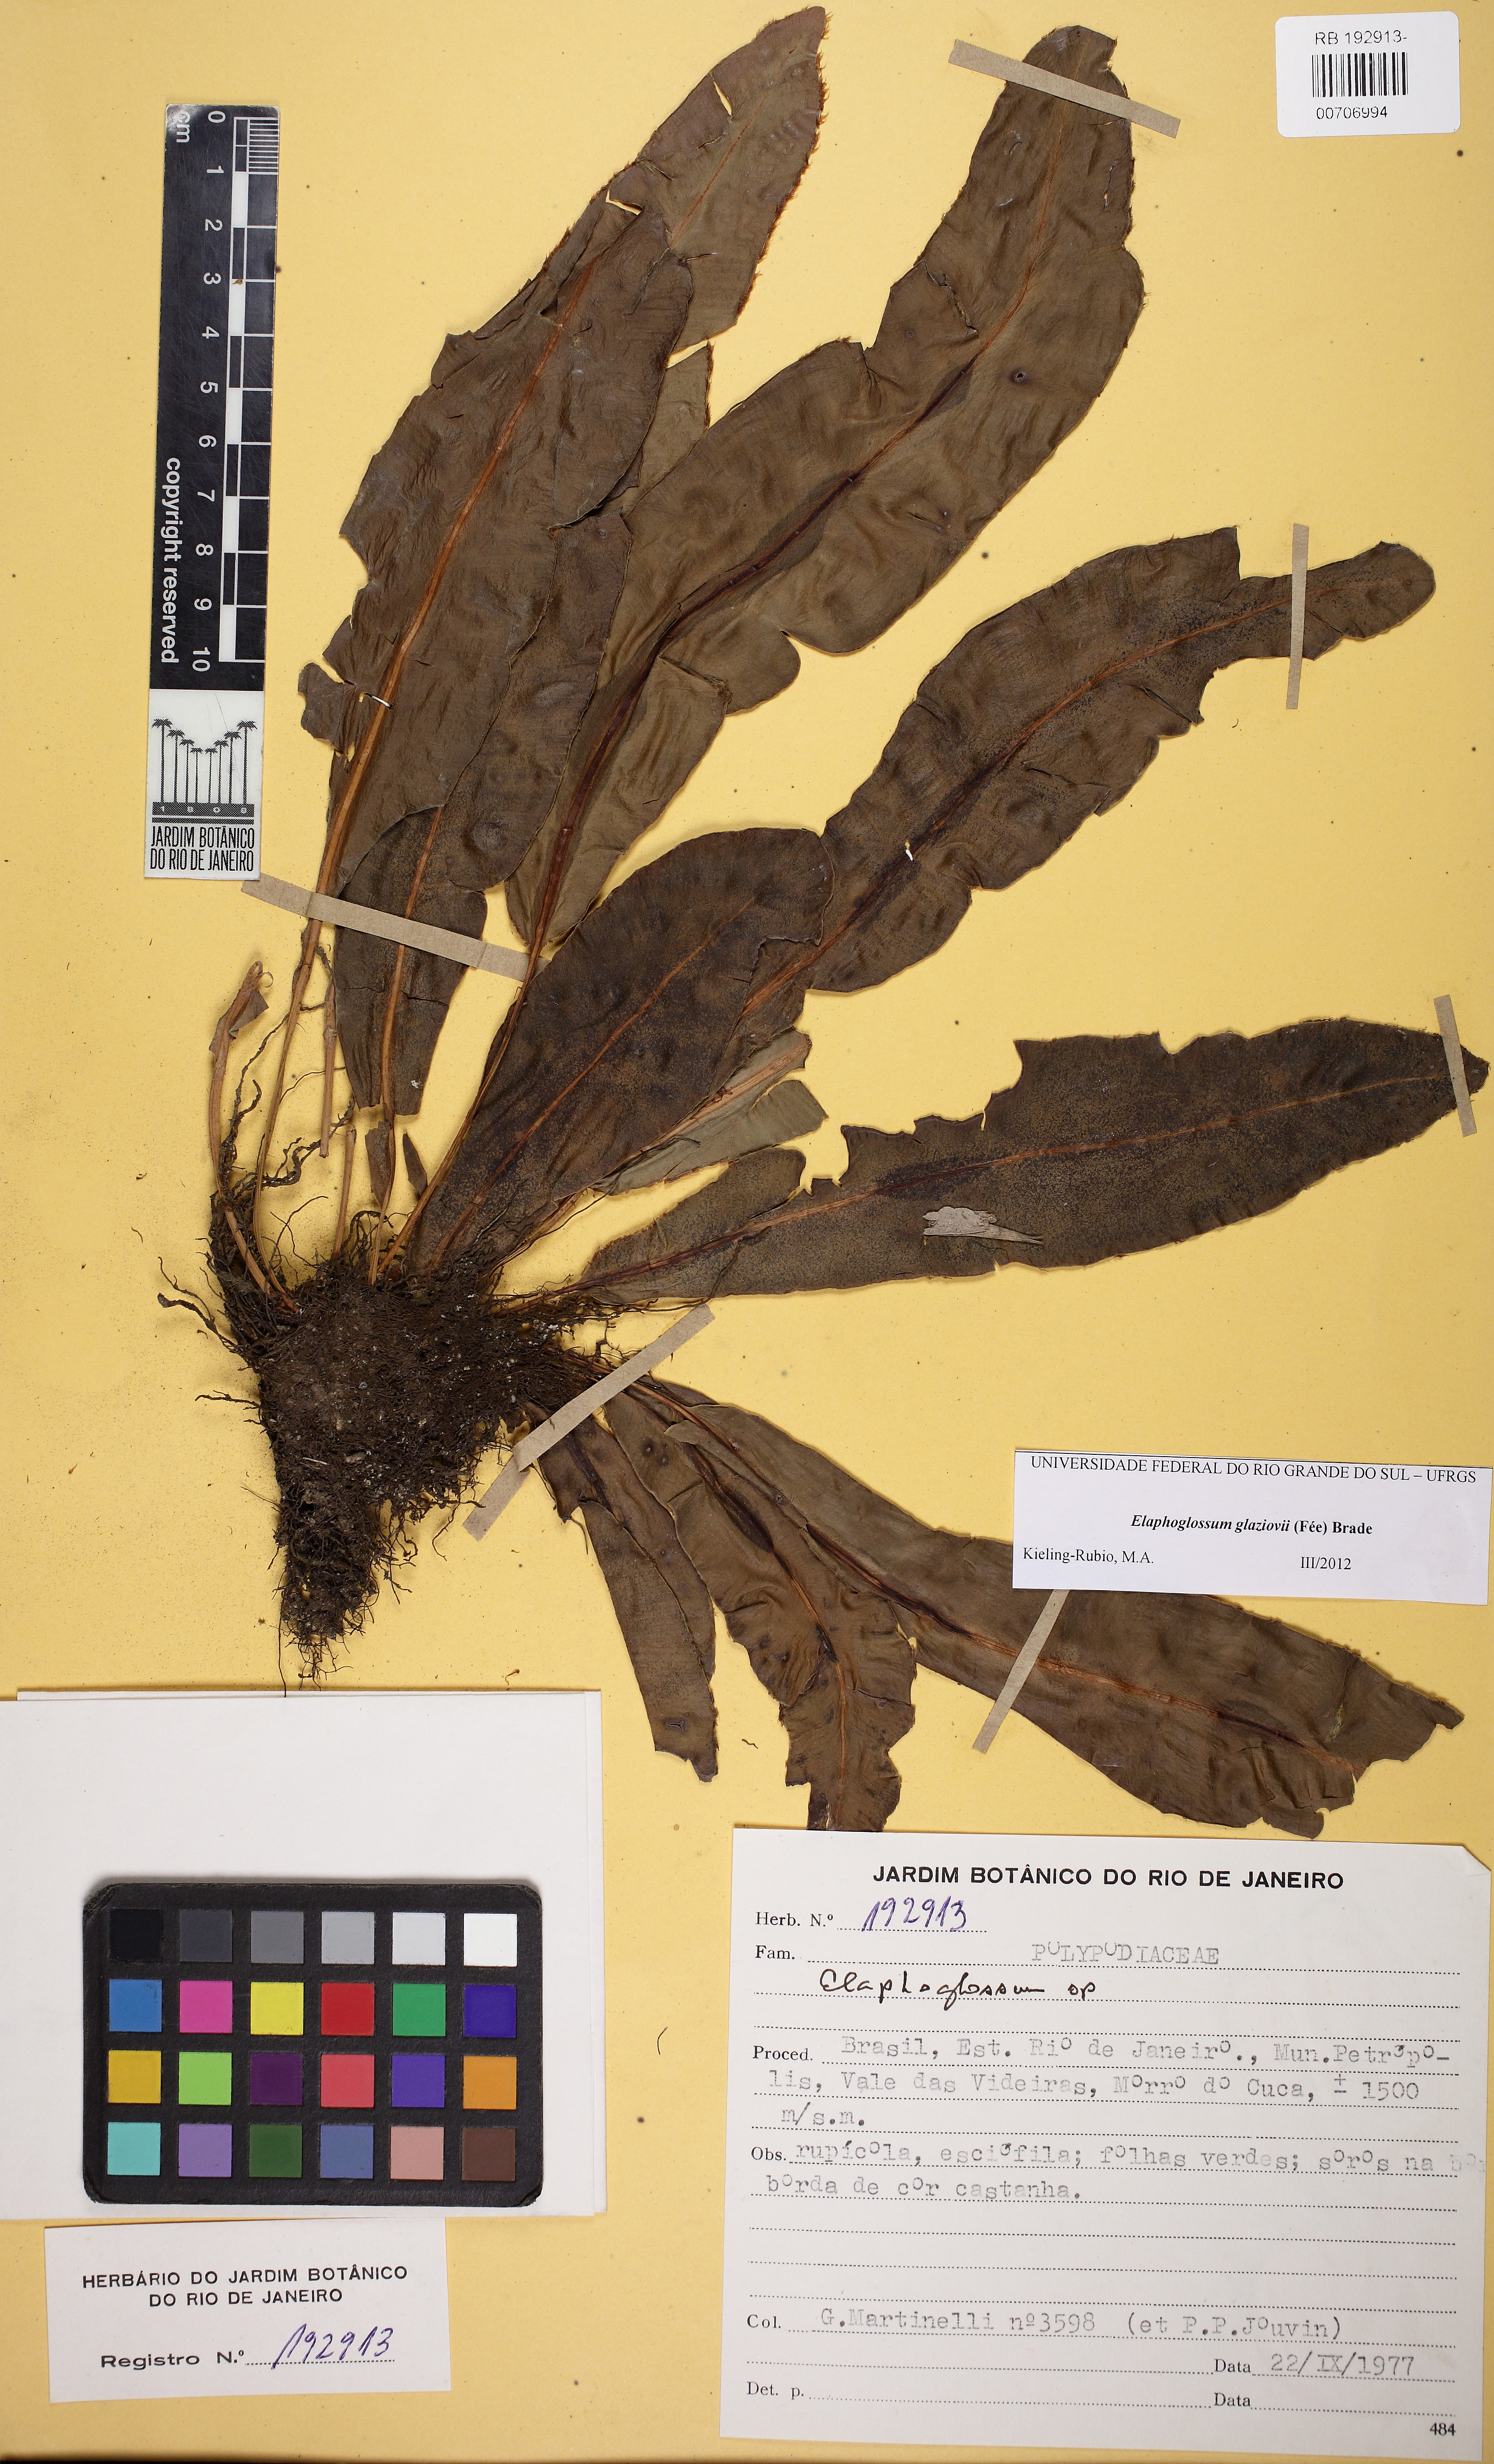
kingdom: Plantae
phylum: Tracheophyta
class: Polypodiopsida
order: Polypodiales
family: Dryopteridaceae
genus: Elaphoglossum
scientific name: Elaphoglossum glaziovii
